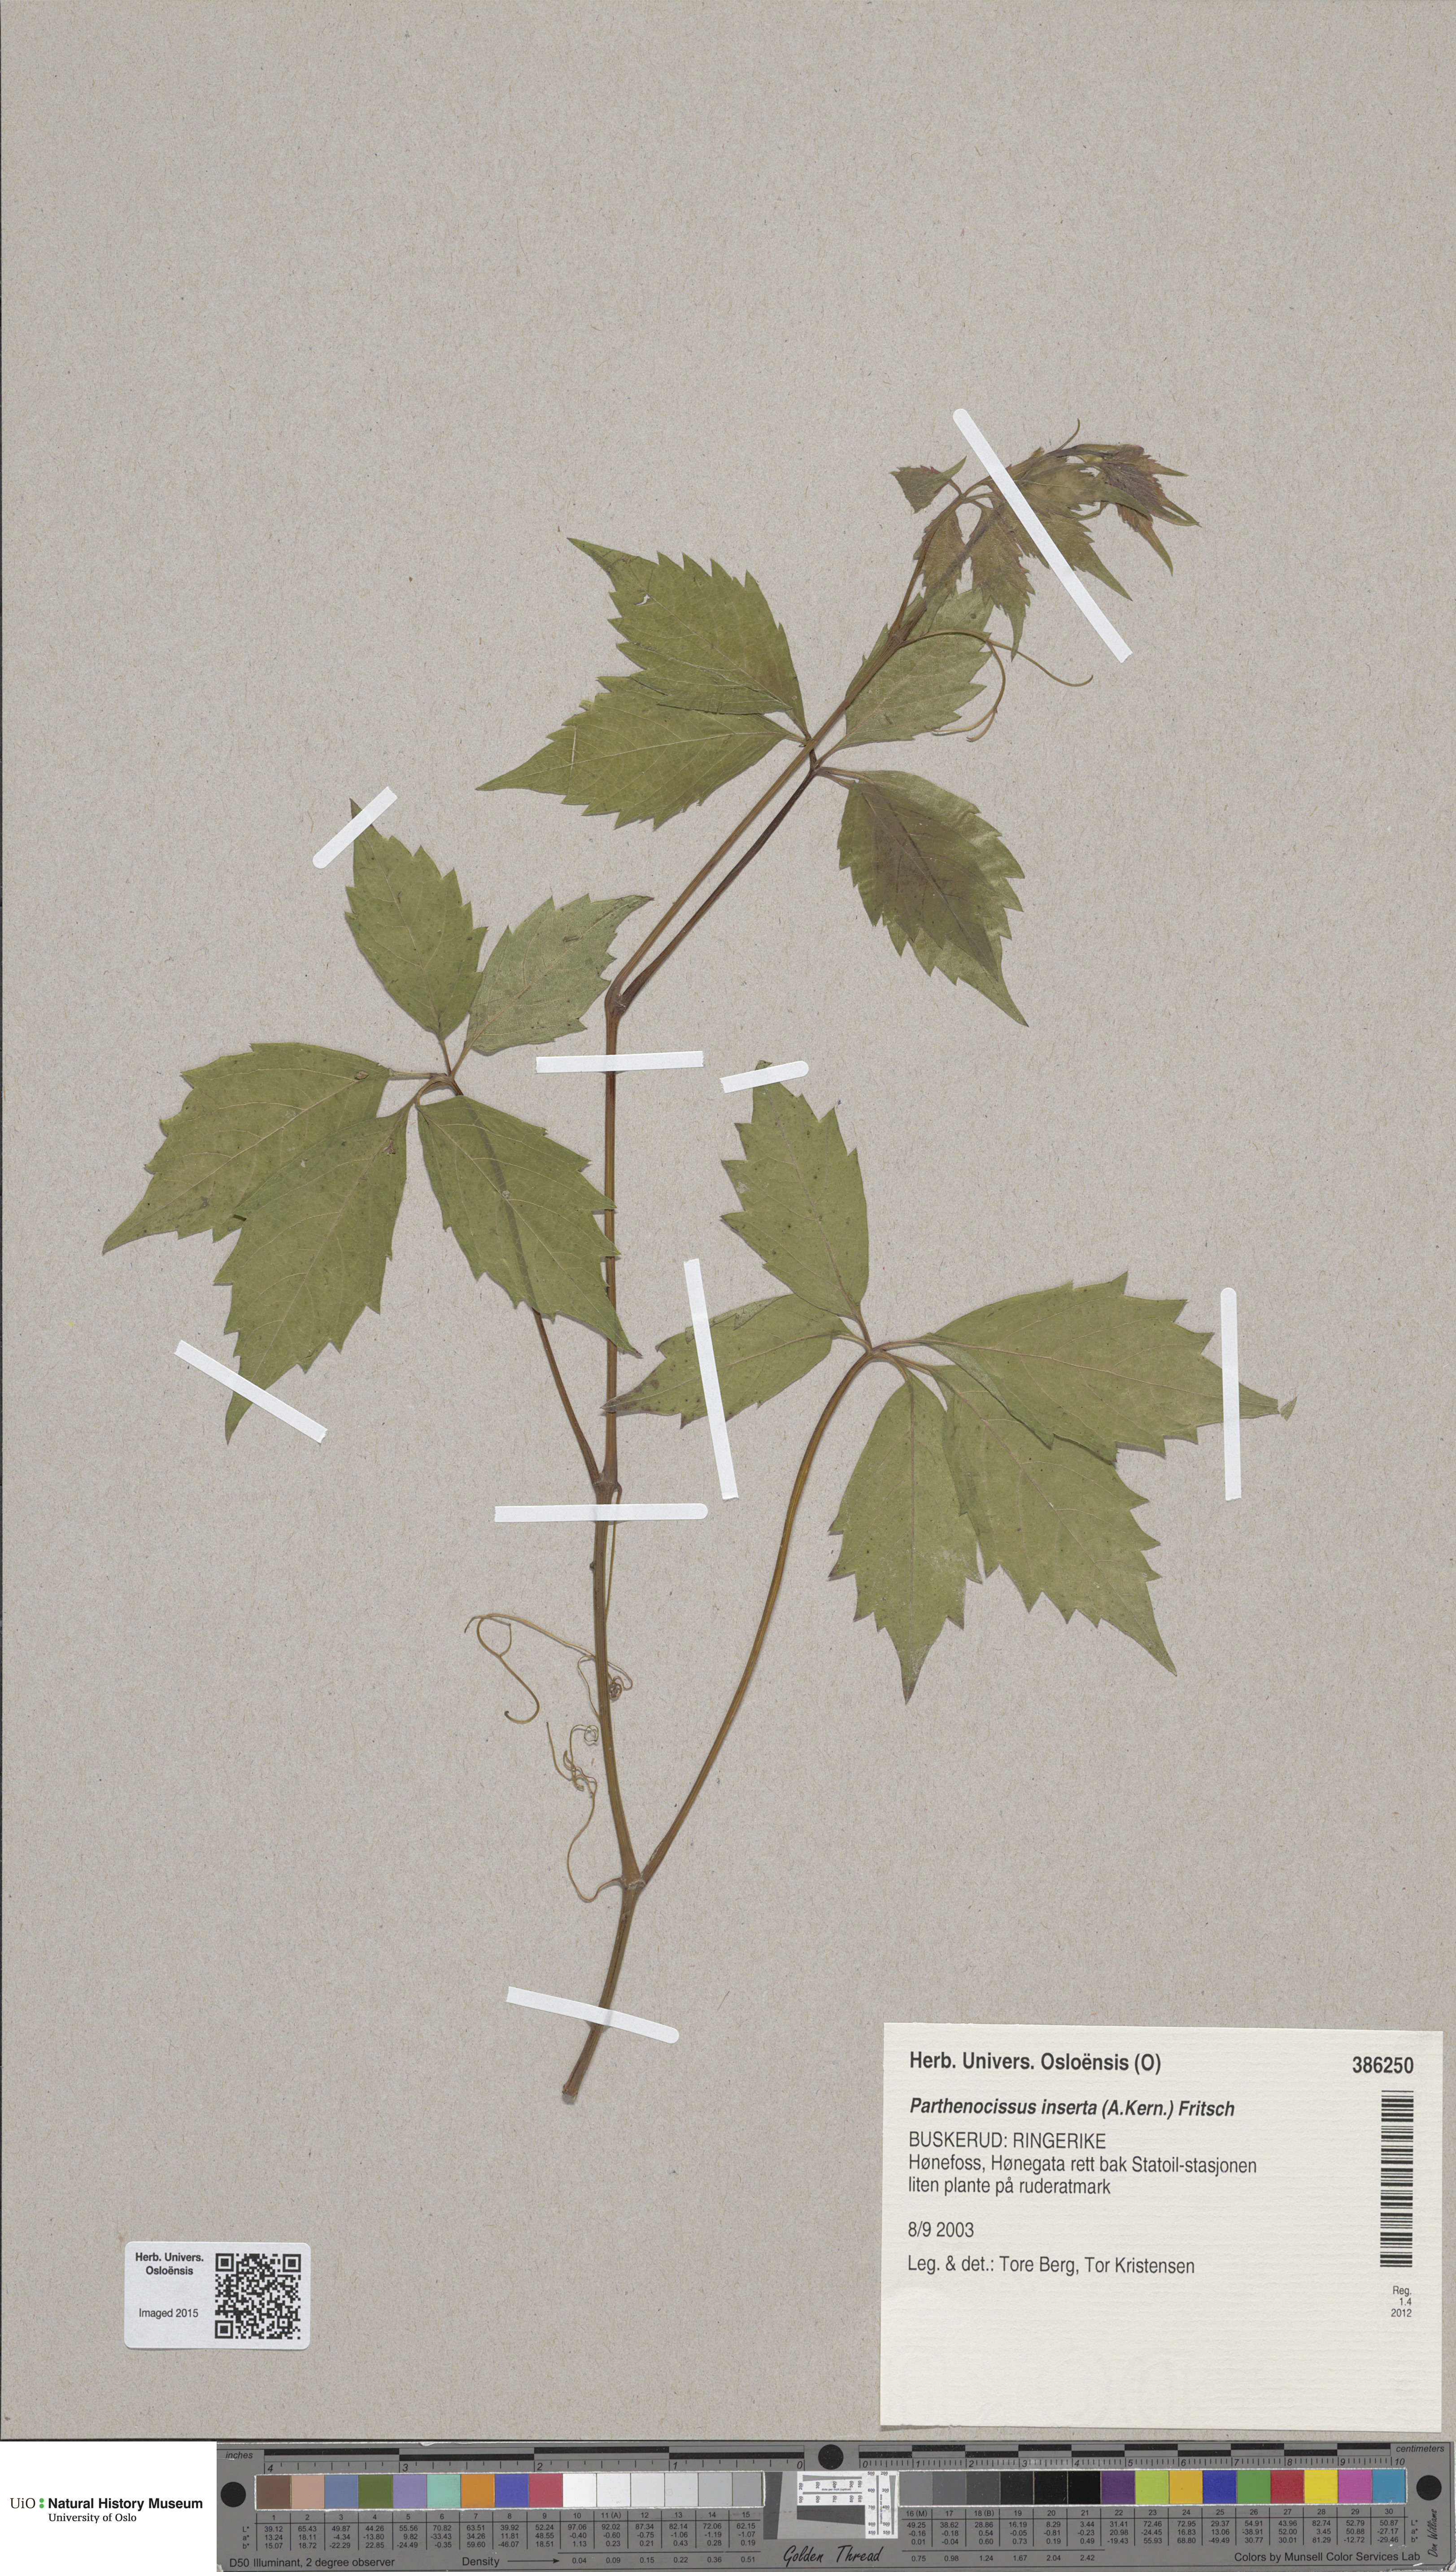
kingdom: Plantae
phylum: Tracheophyta
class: Magnoliopsida
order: Vitales
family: Vitaceae
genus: Parthenocissus
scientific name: Parthenocissus inserta
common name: False virginia-creeper
